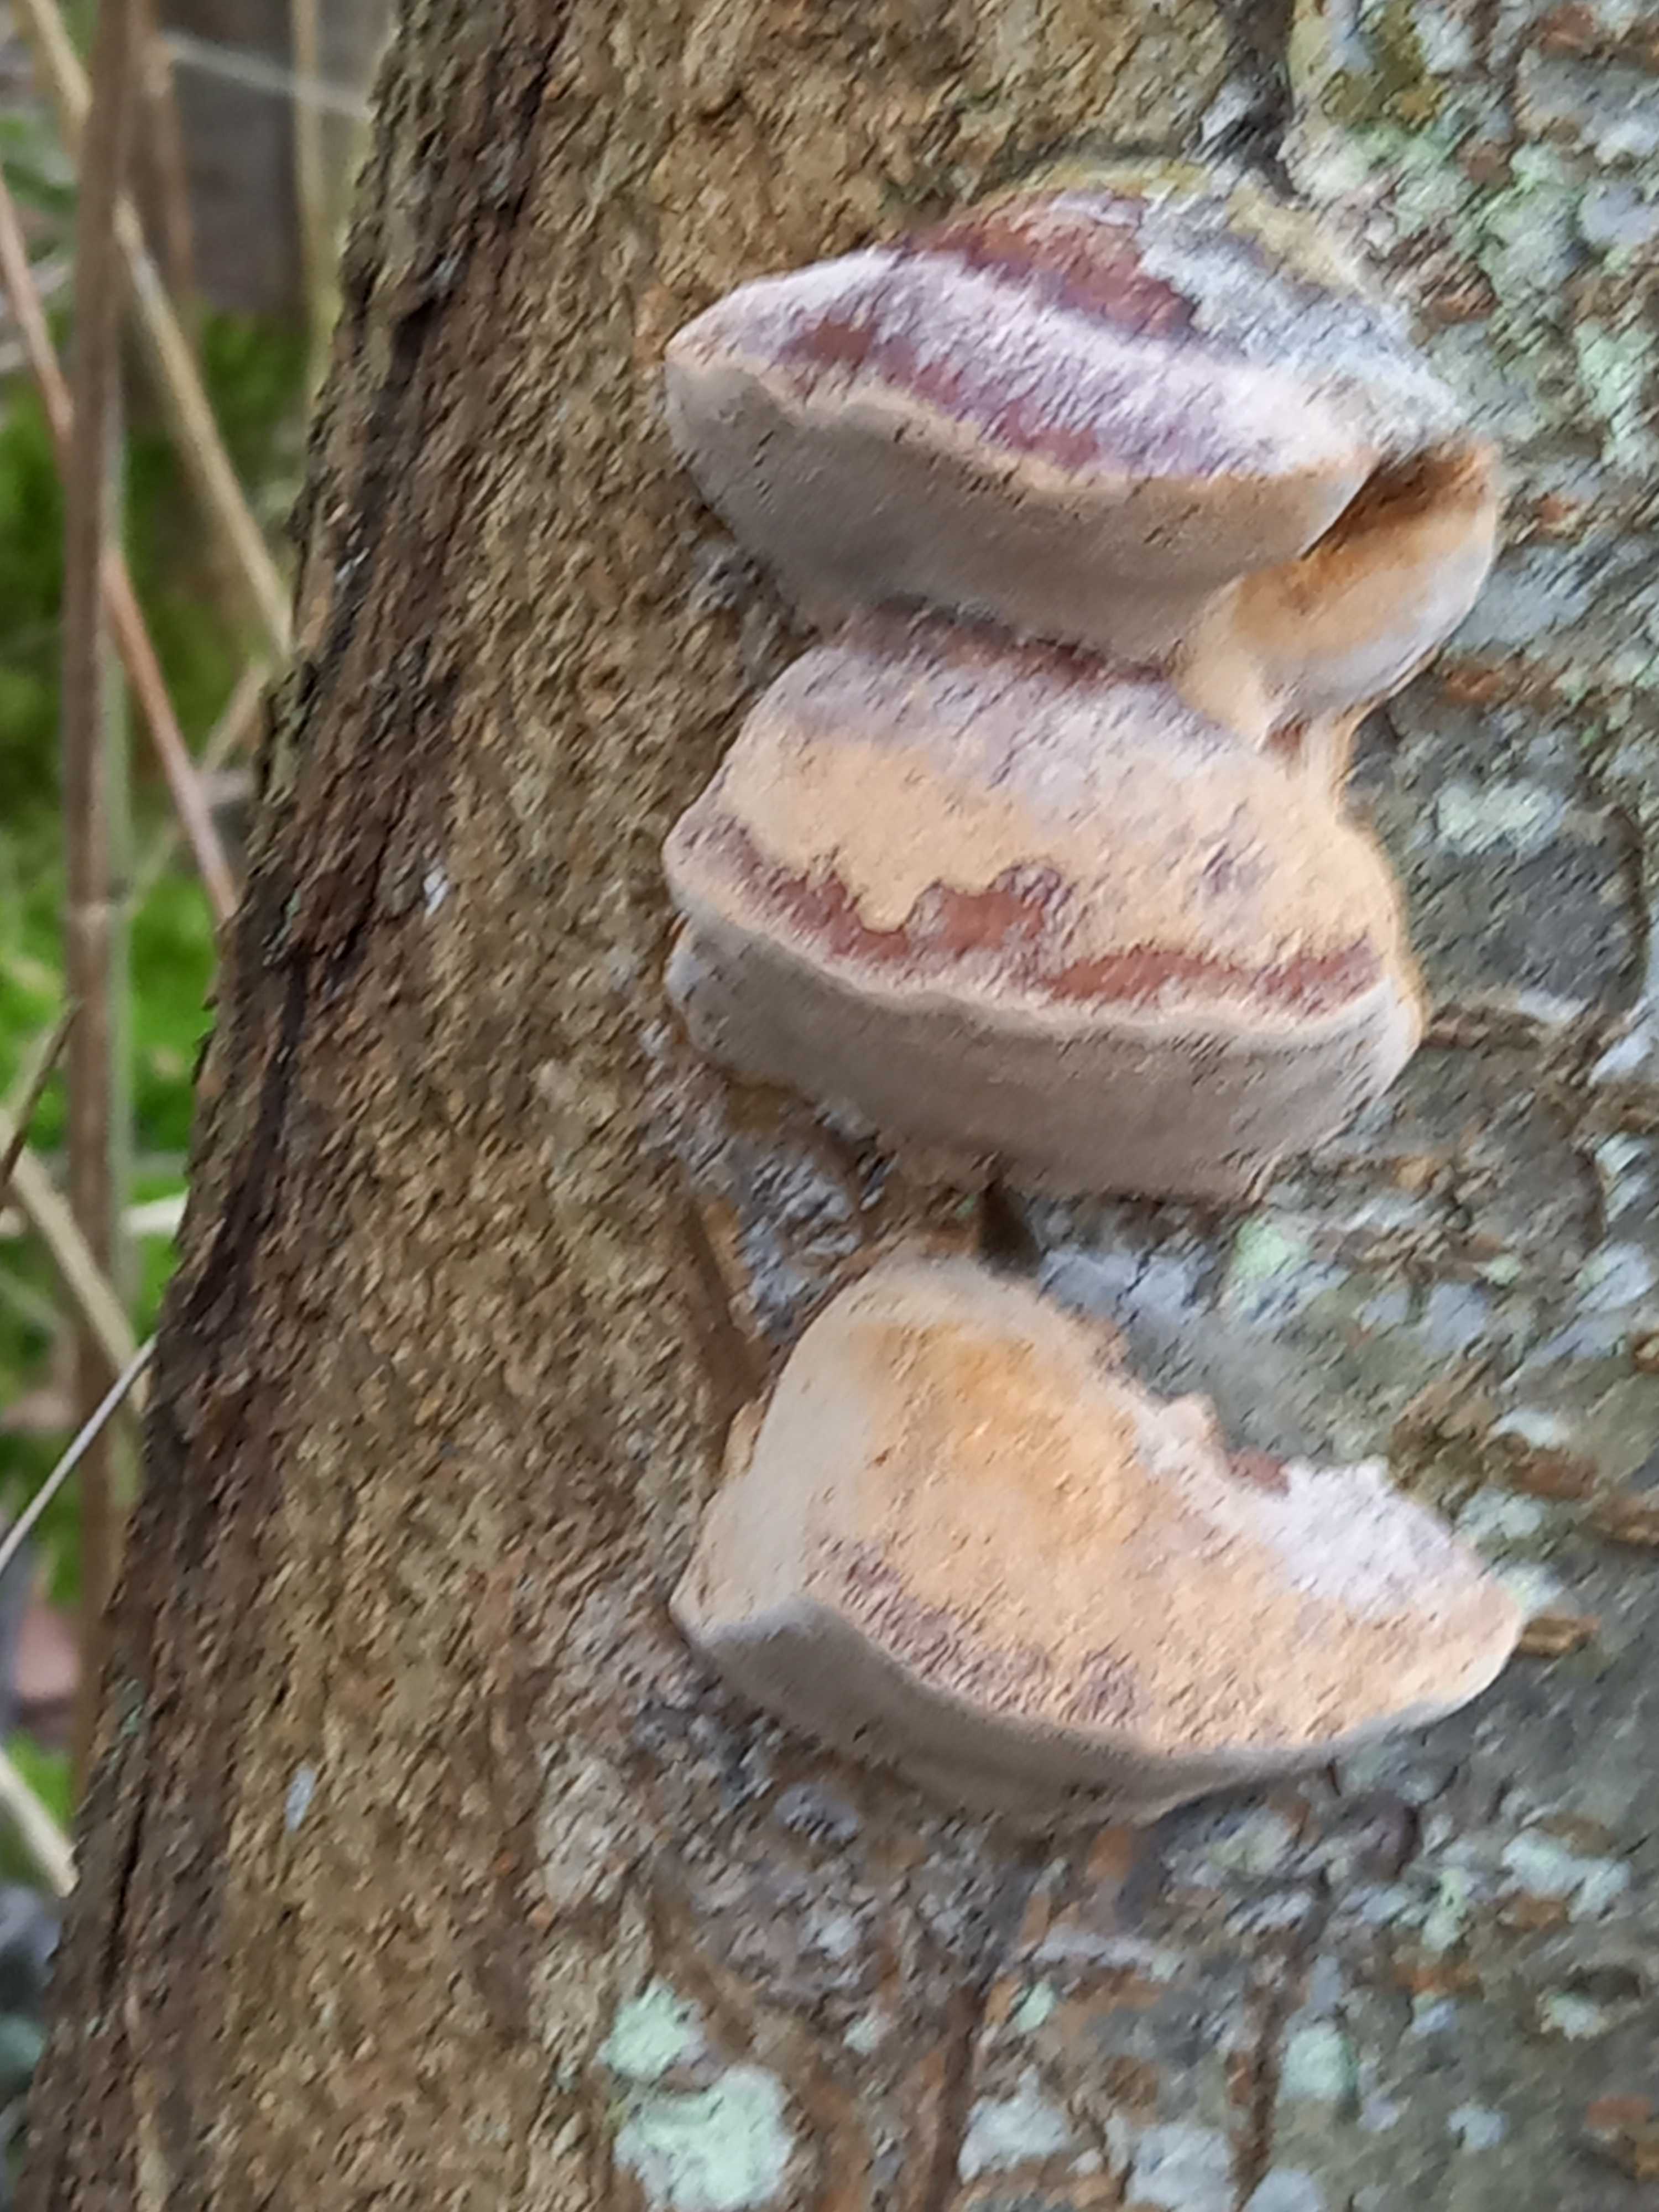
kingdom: Fungi
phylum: Basidiomycota
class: Agaricomycetes
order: Hymenochaetales
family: Hymenochaetaceae
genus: Phellinus
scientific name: Phellinus pomaceus
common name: blomme-ildporesvamp
